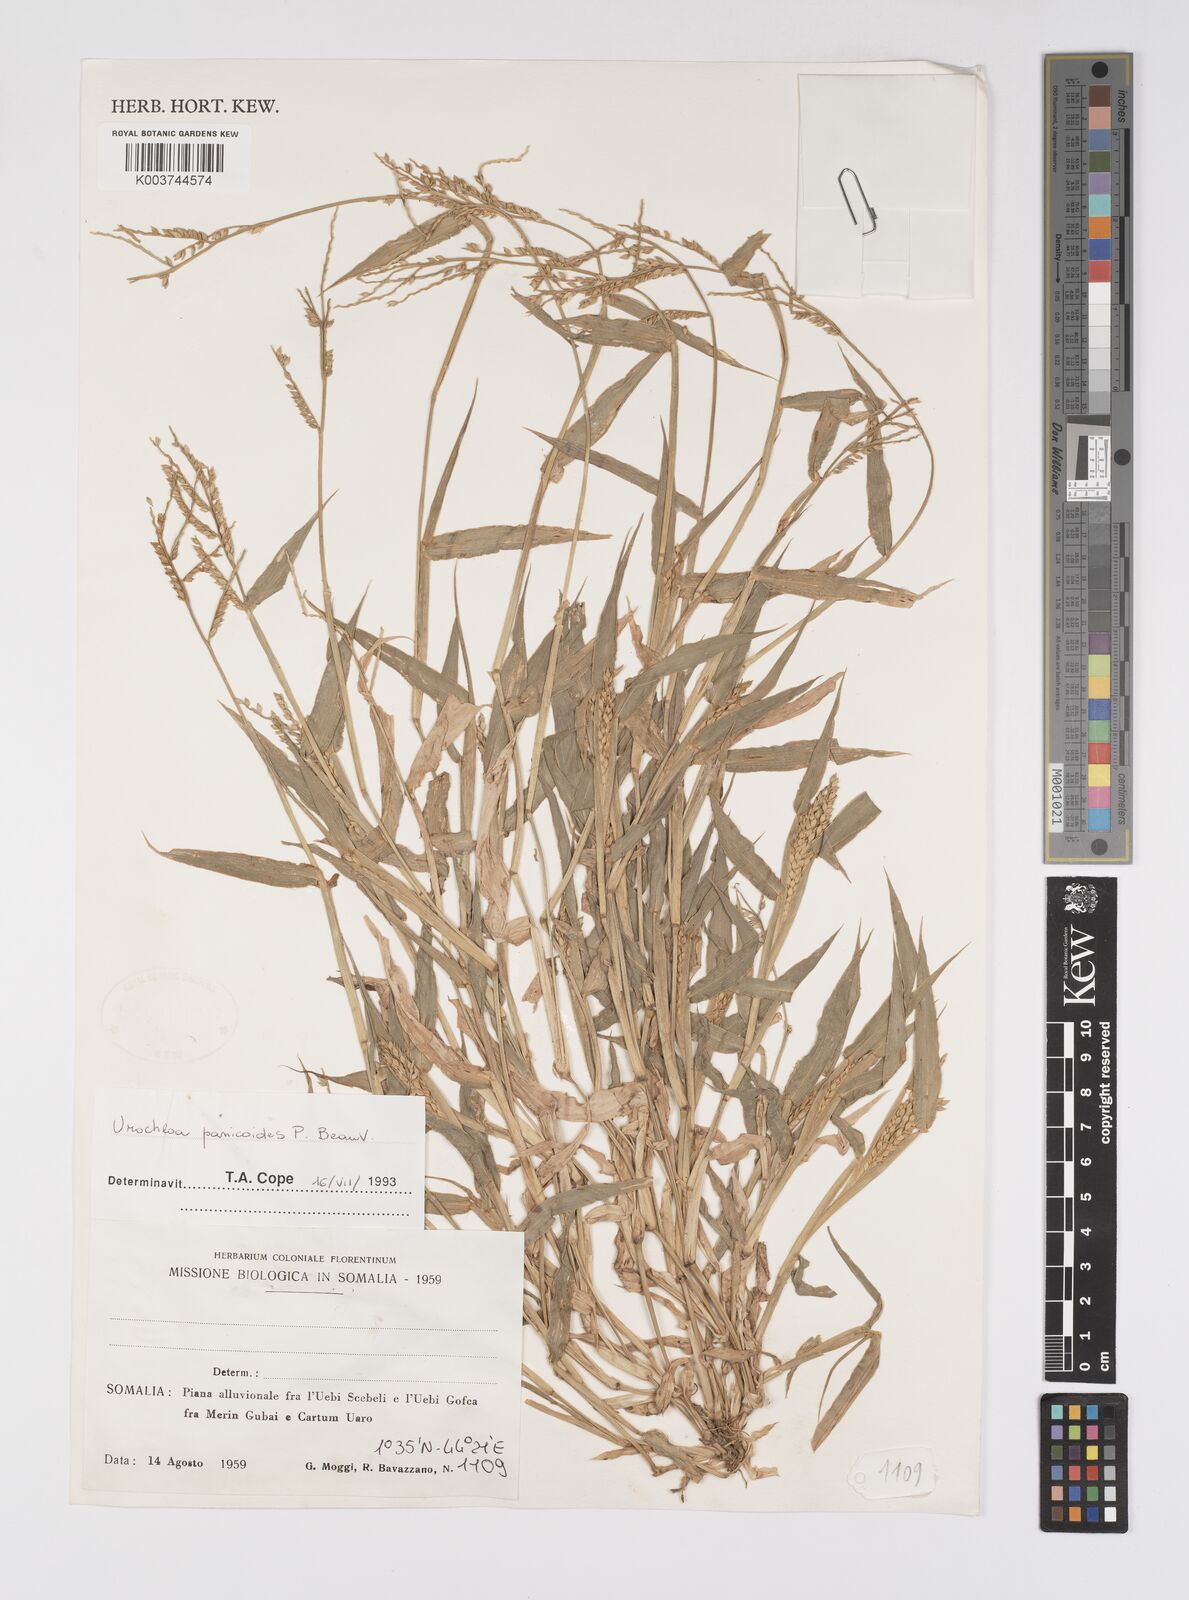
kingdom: Plantae
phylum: Tracheophyta
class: Liliopsida
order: Poales
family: Poaceae
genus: Urochloa
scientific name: Urochloa panicoides
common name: Sharp-flowered signal-grass
